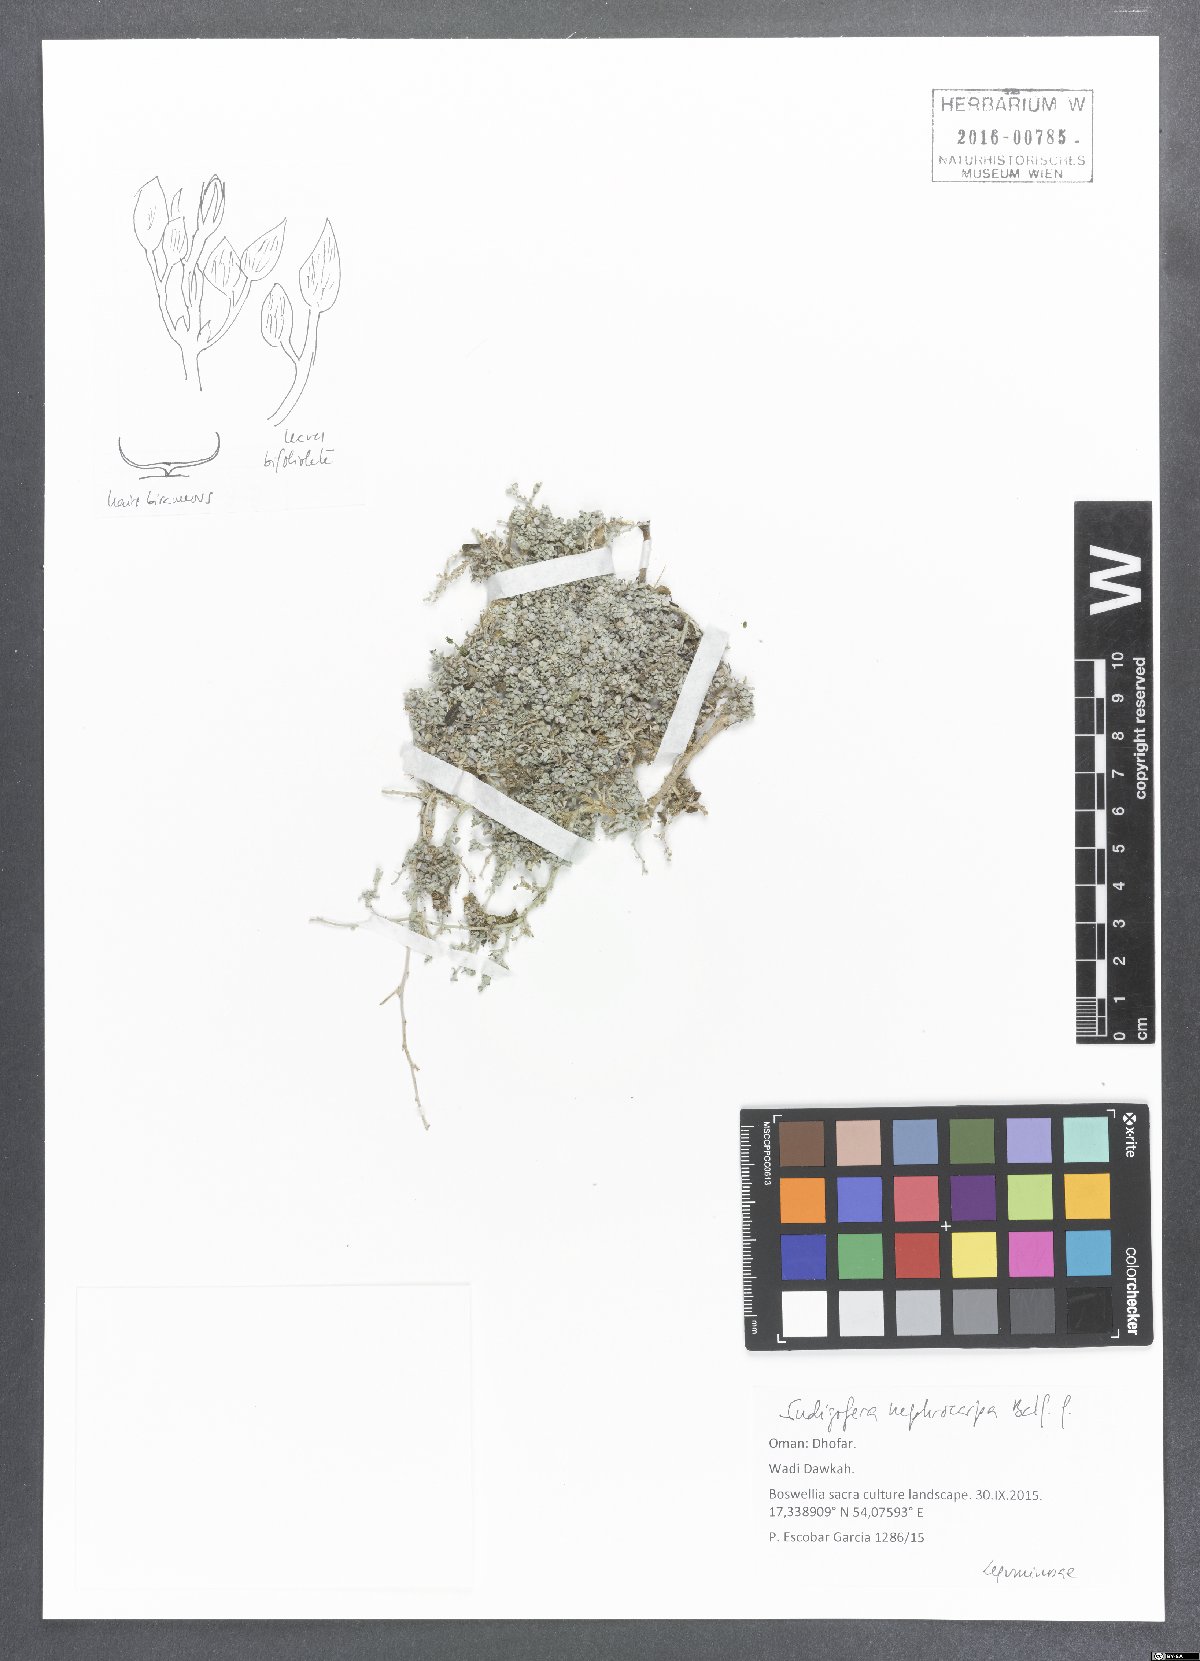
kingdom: Plantae
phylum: Tracheophyta
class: Magnoliopsida
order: Fabales
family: Fabaceae
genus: Indigofera
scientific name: Indigofera nephrocarpa
